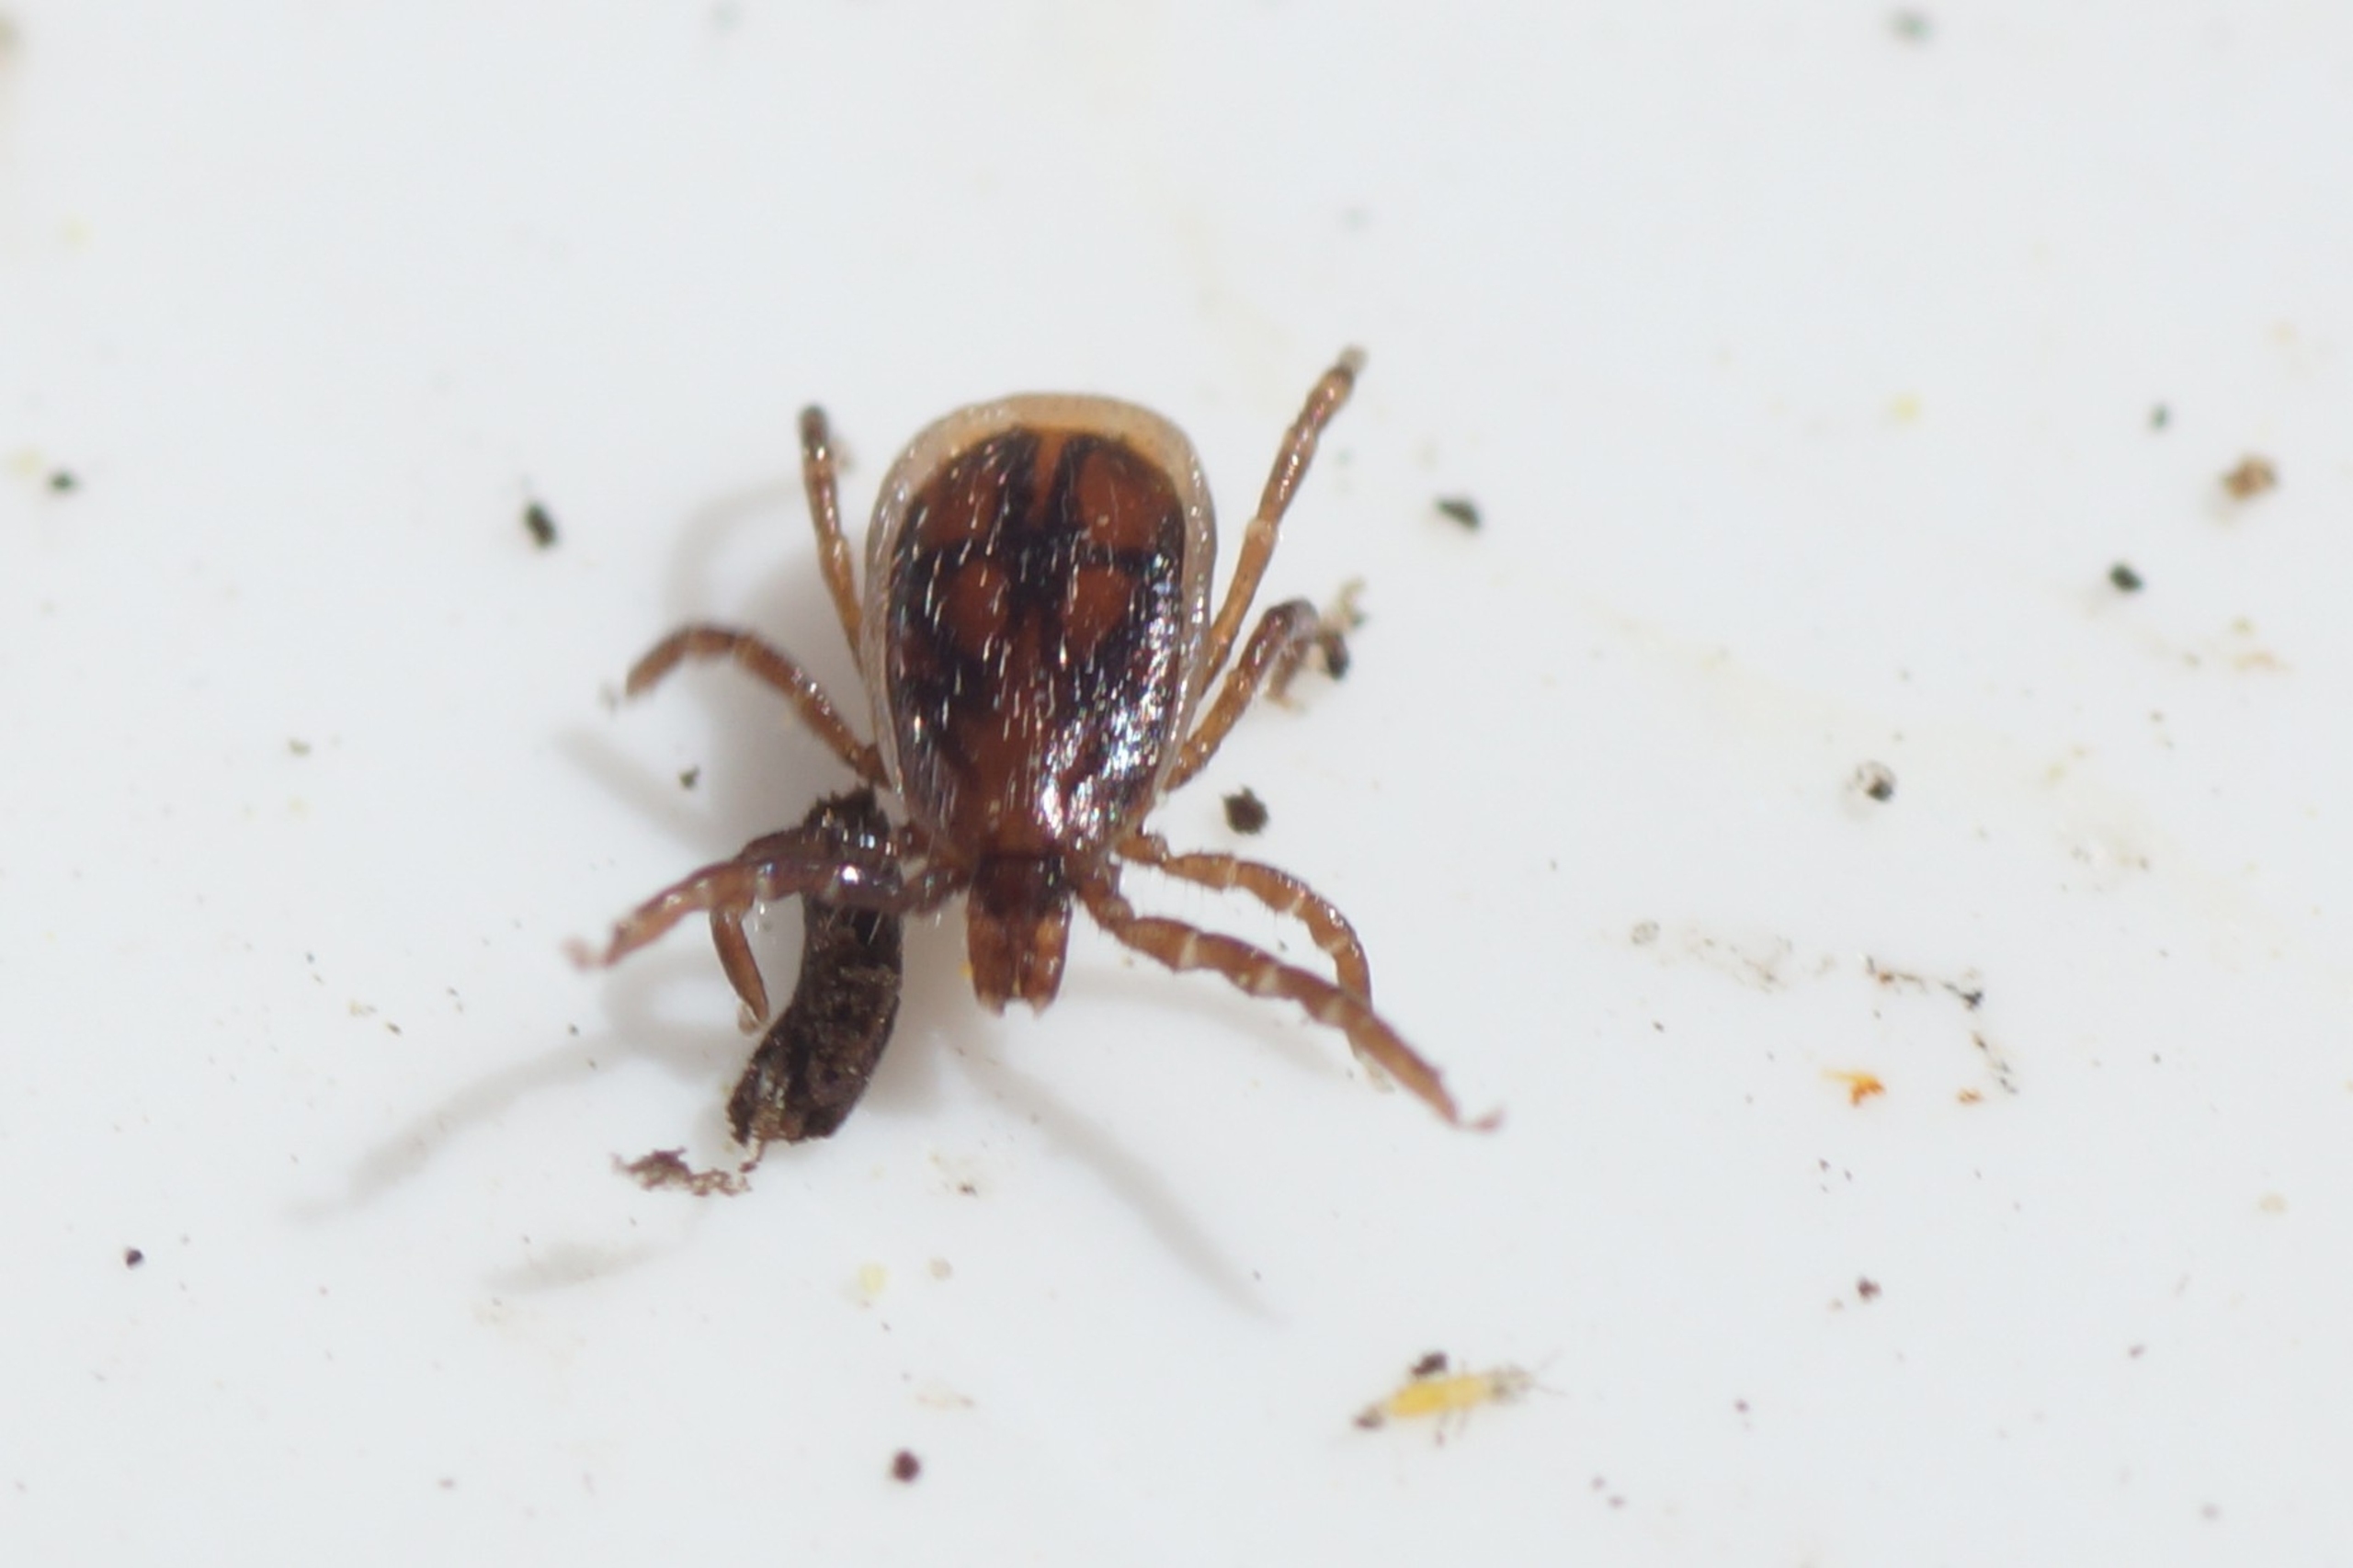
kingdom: Animalia
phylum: Arthropoda
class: Arachnida
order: Ixodida
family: Ixodidae
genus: Ixodes
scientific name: Ixodes ricinus
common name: Skovflåt
